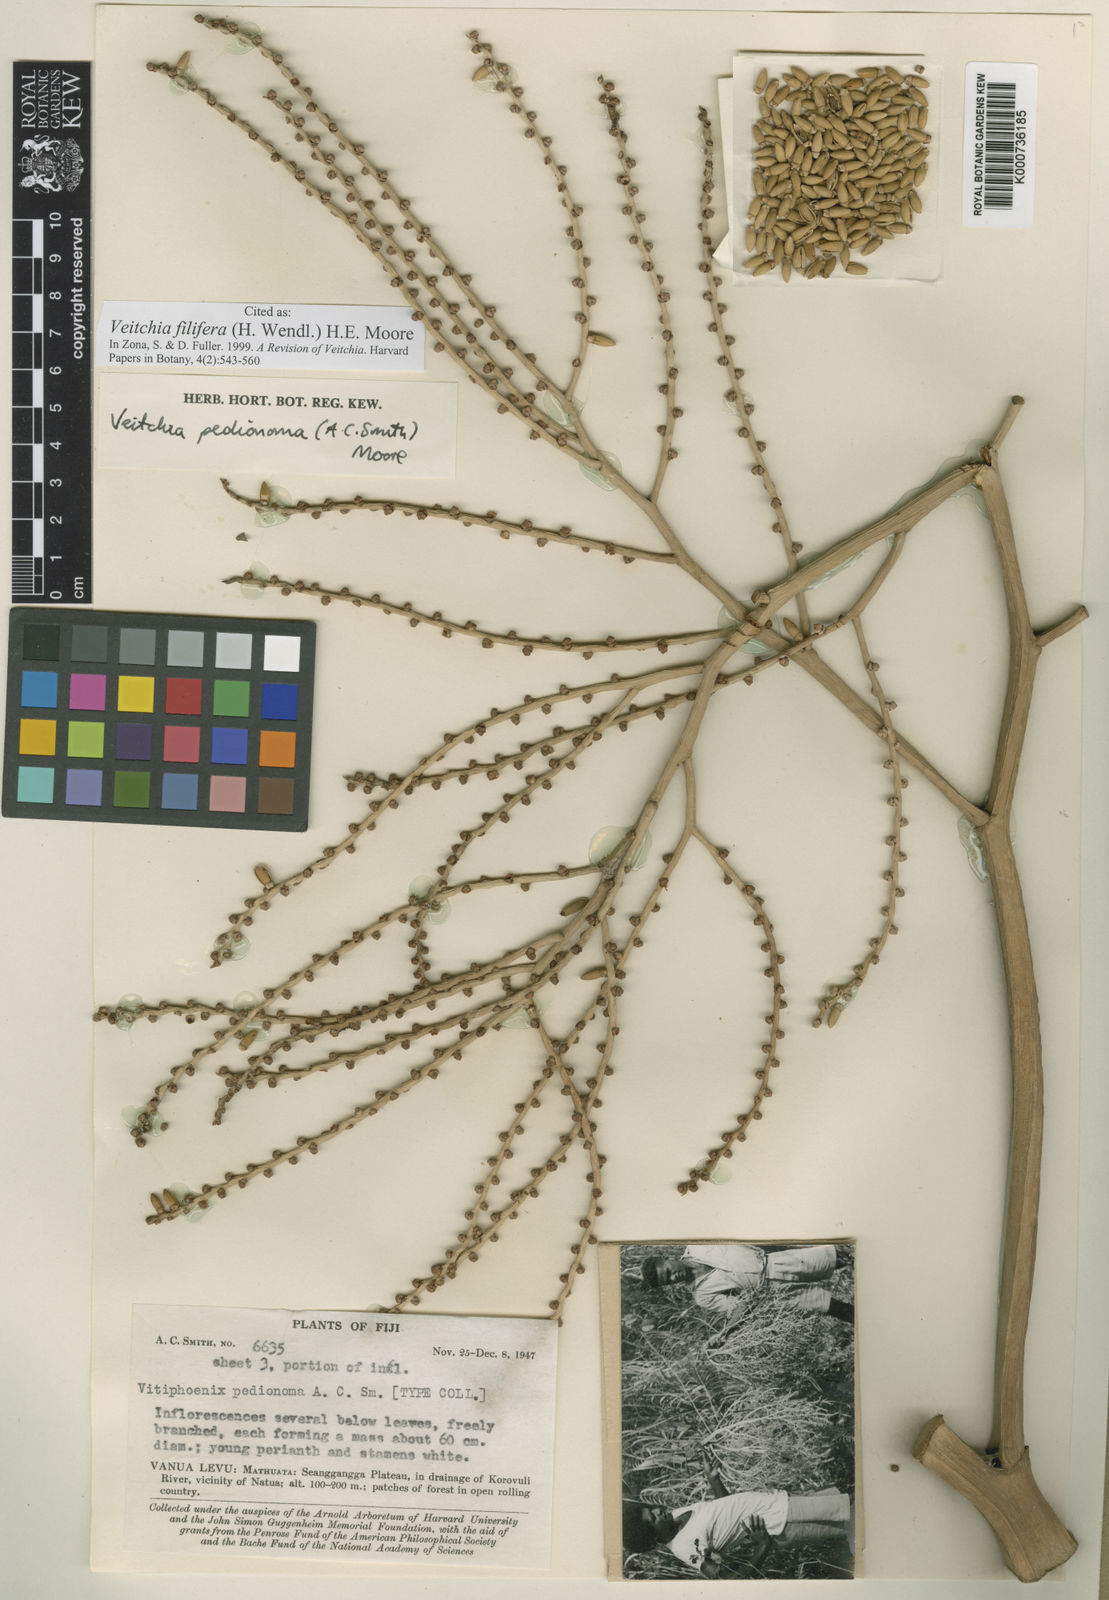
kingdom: Plantae
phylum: Tracheophyta
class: Liliopsida
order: Arecales
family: Arecaceae
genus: Veitchia
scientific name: Veitchia filifera
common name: Cagicake
